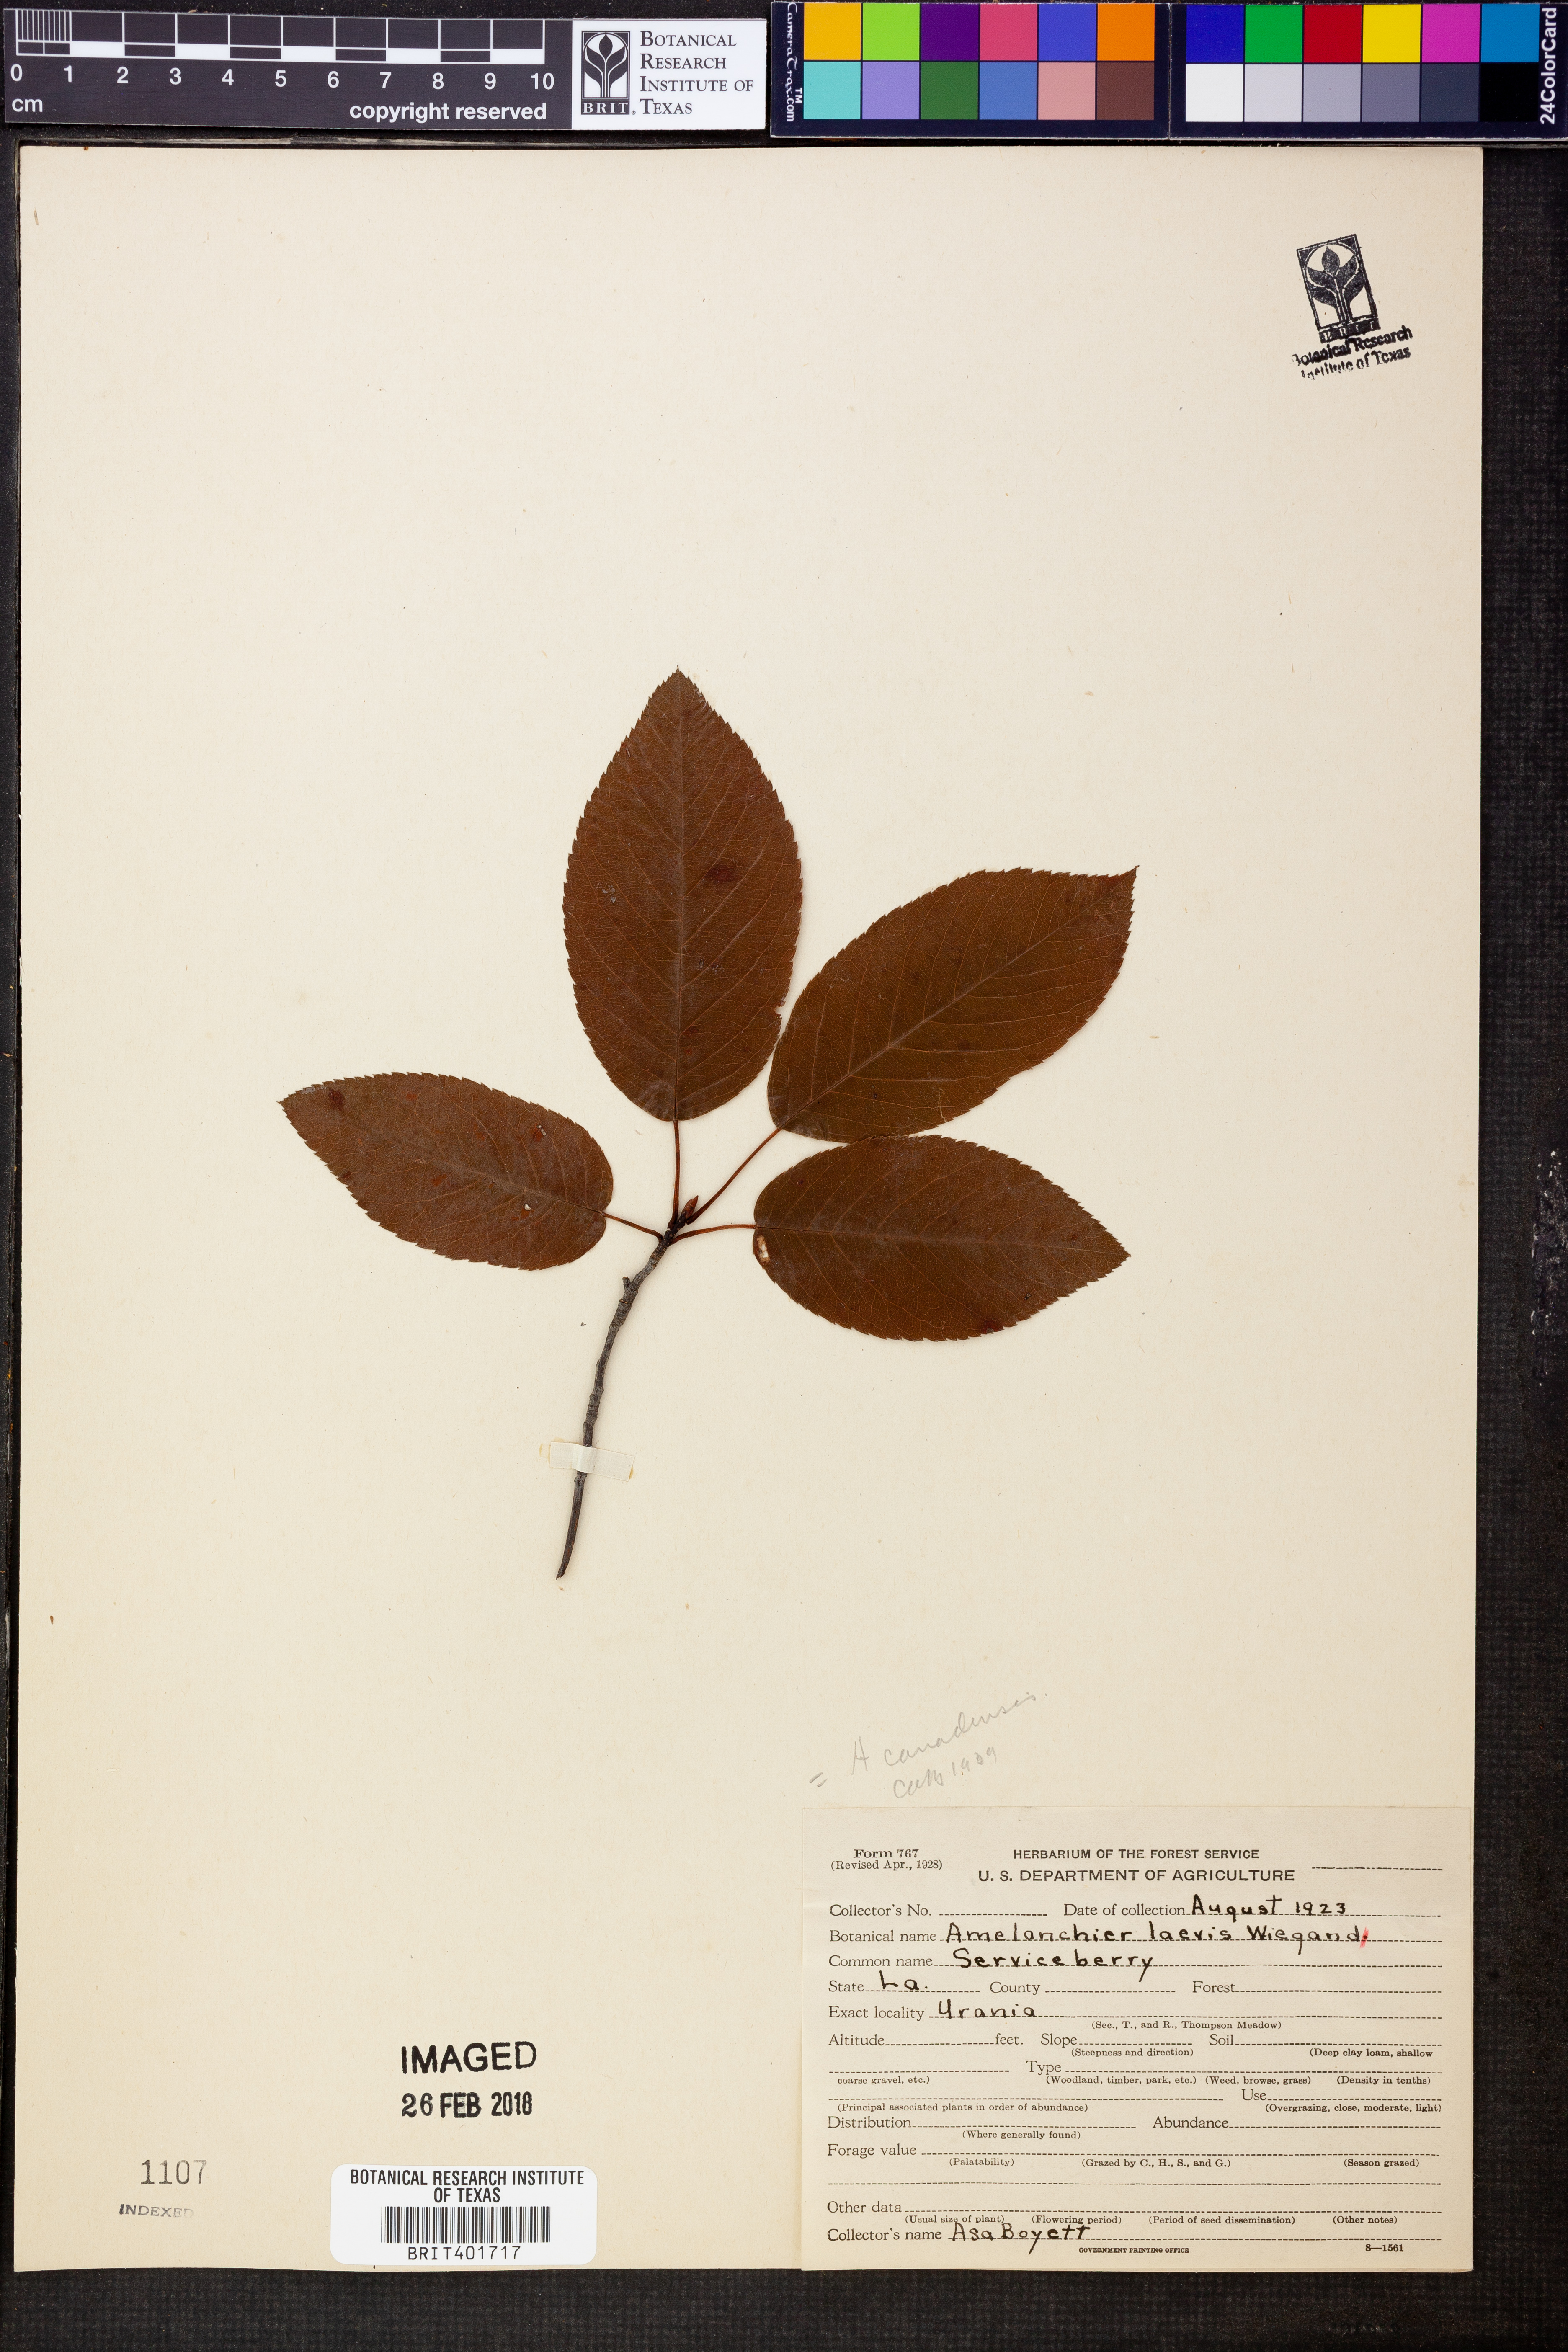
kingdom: Plantae
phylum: Tracheophyta
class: Magnoliopsida
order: Rosales
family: Rosaceae
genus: Amelanchier
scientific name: Amelanchier canadensis
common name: Thicket serviceberry
